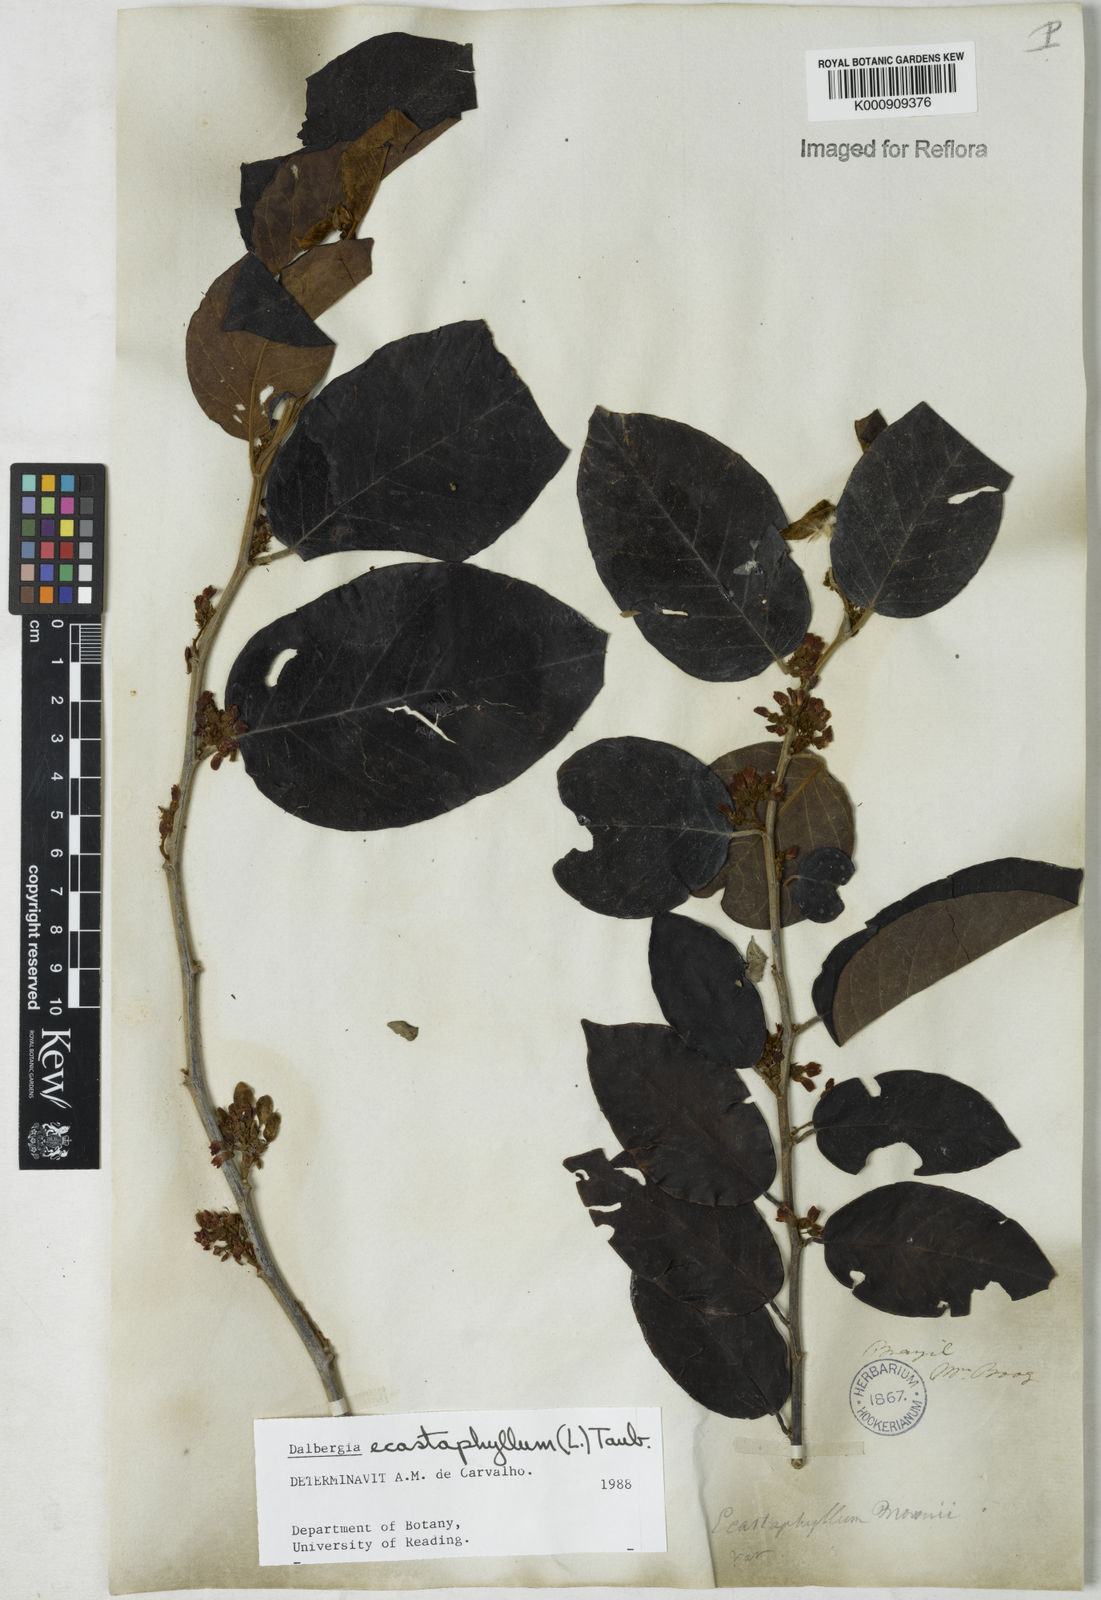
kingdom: Plantae
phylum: Tracheophyta
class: Magnoliopsida
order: Fabales
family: Fabaceae
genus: Dalbergia
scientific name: Dalbergia ecastaphyllum
